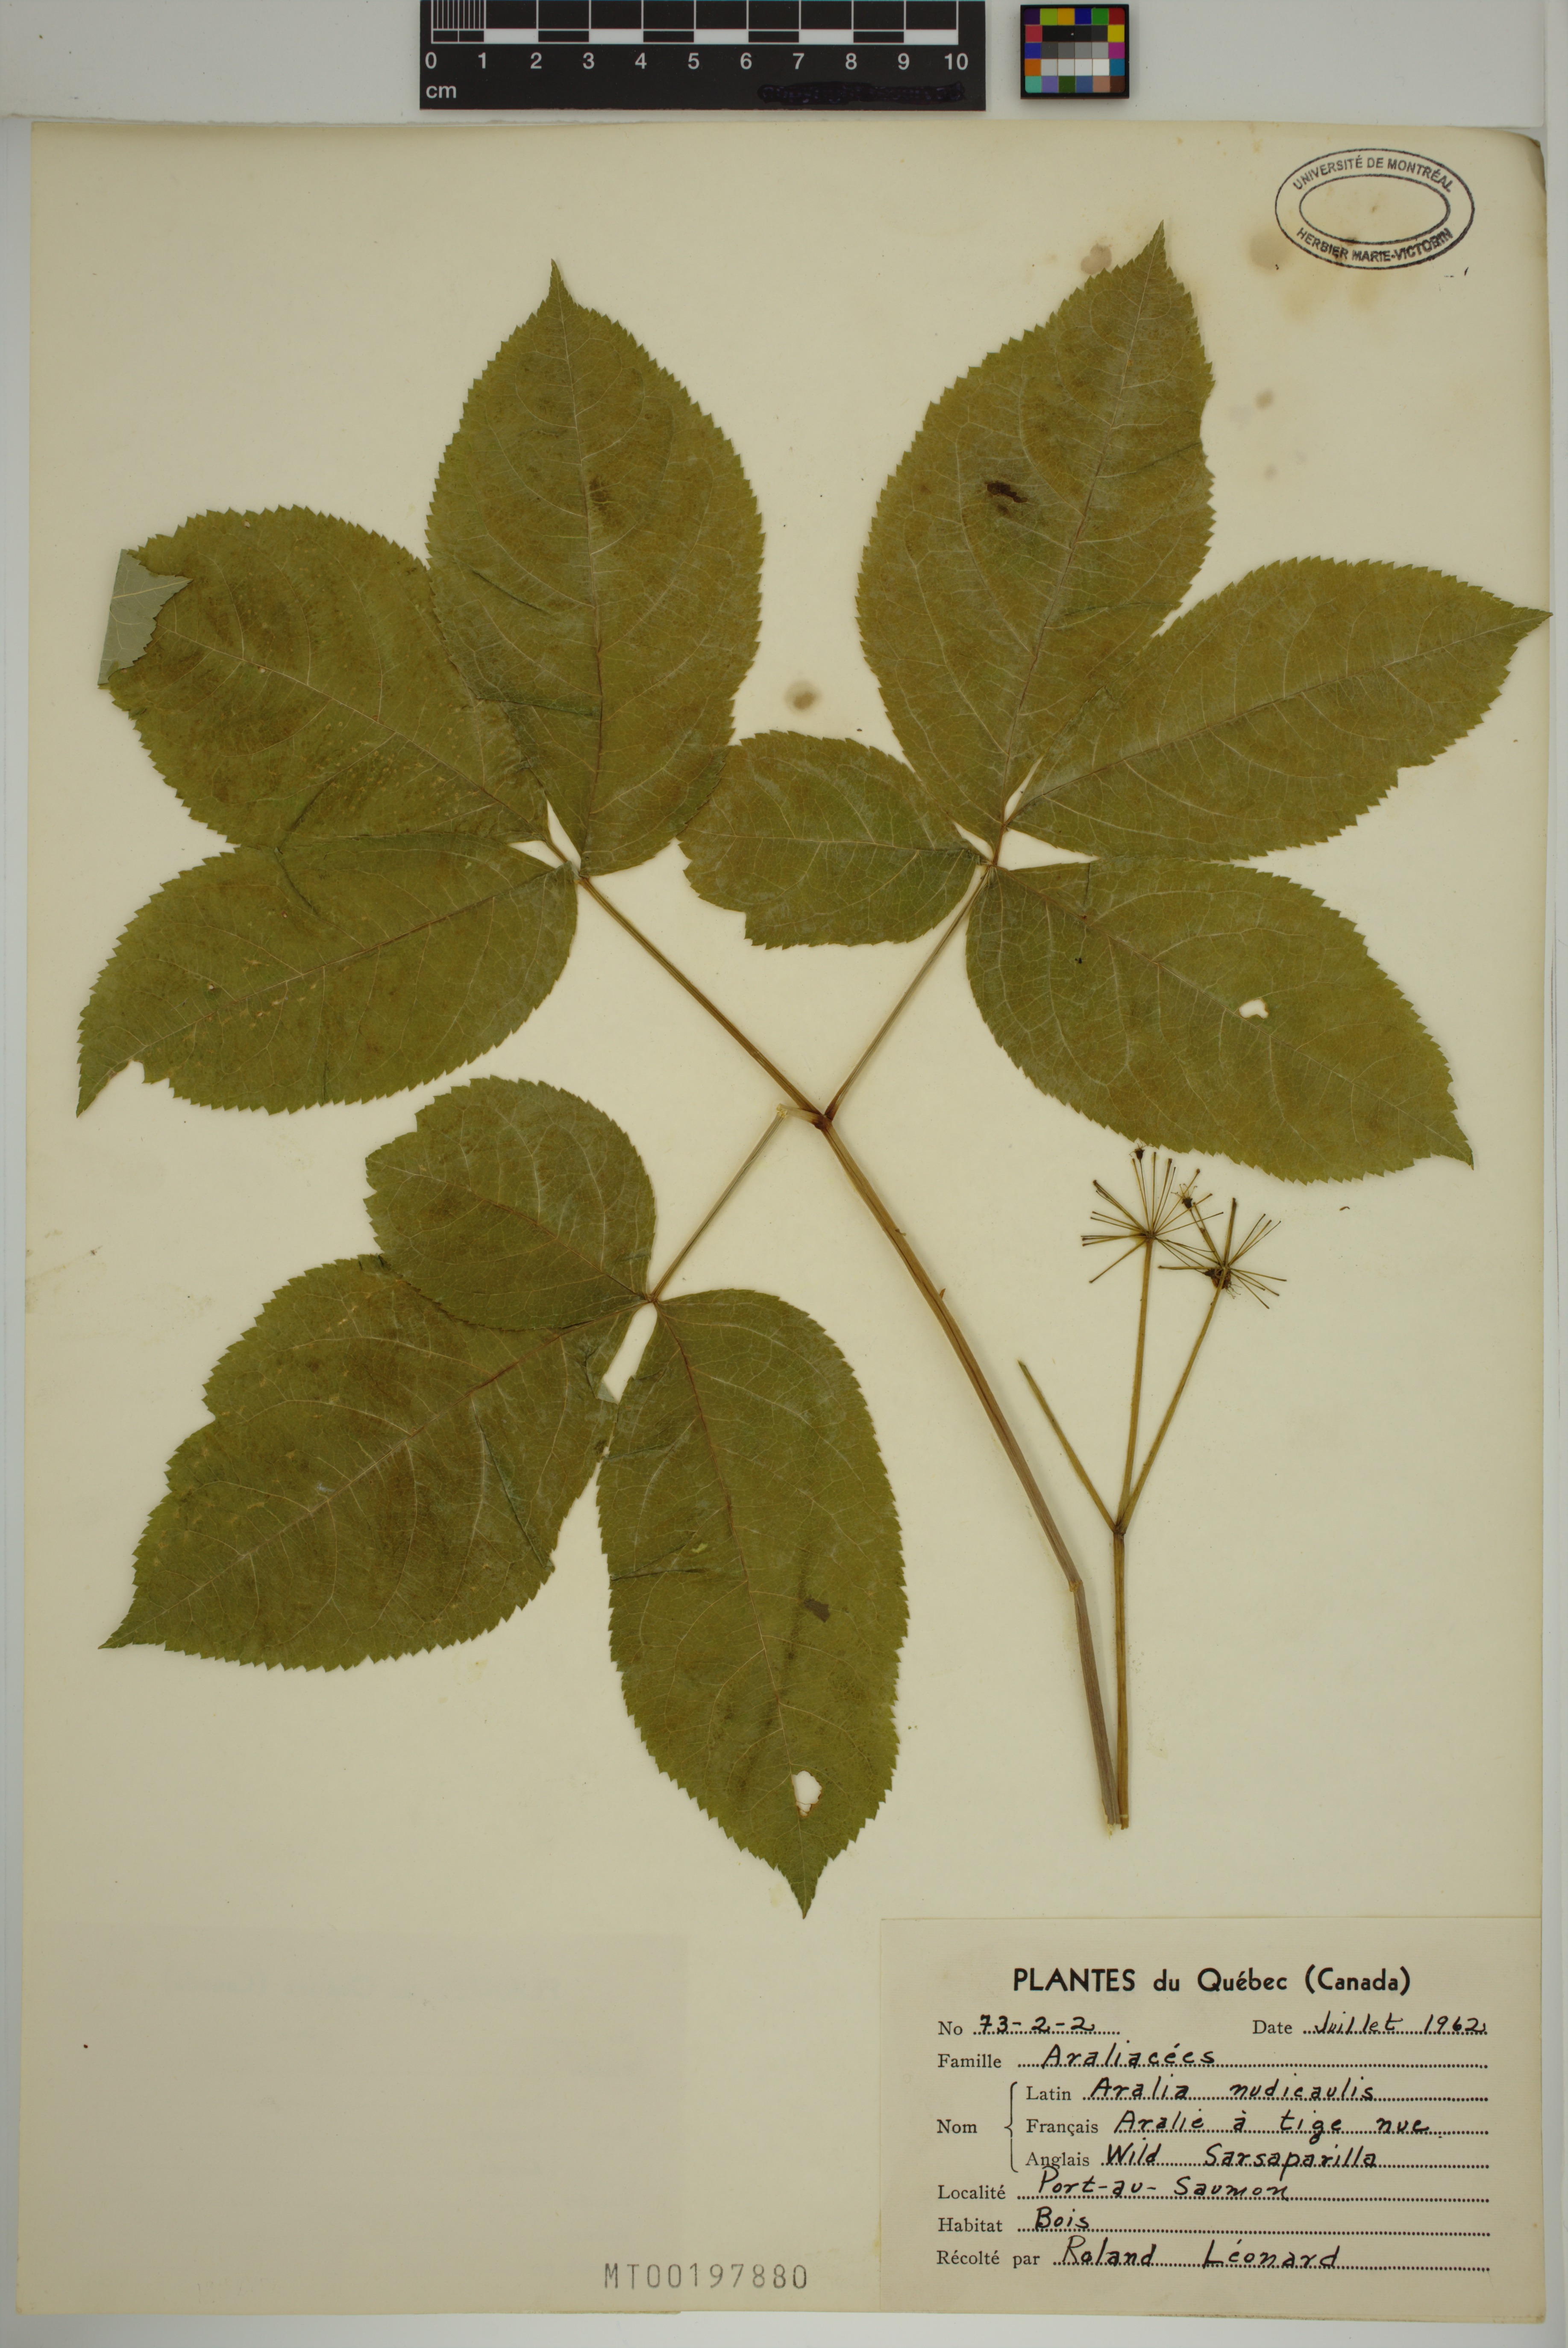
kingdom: Plantae
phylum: Tracheophyta
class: Magnoliopsida
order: Apiales
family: Araliaceae
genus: Aralia
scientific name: Aralia nudicaulis
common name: Wild sarsaparilla
